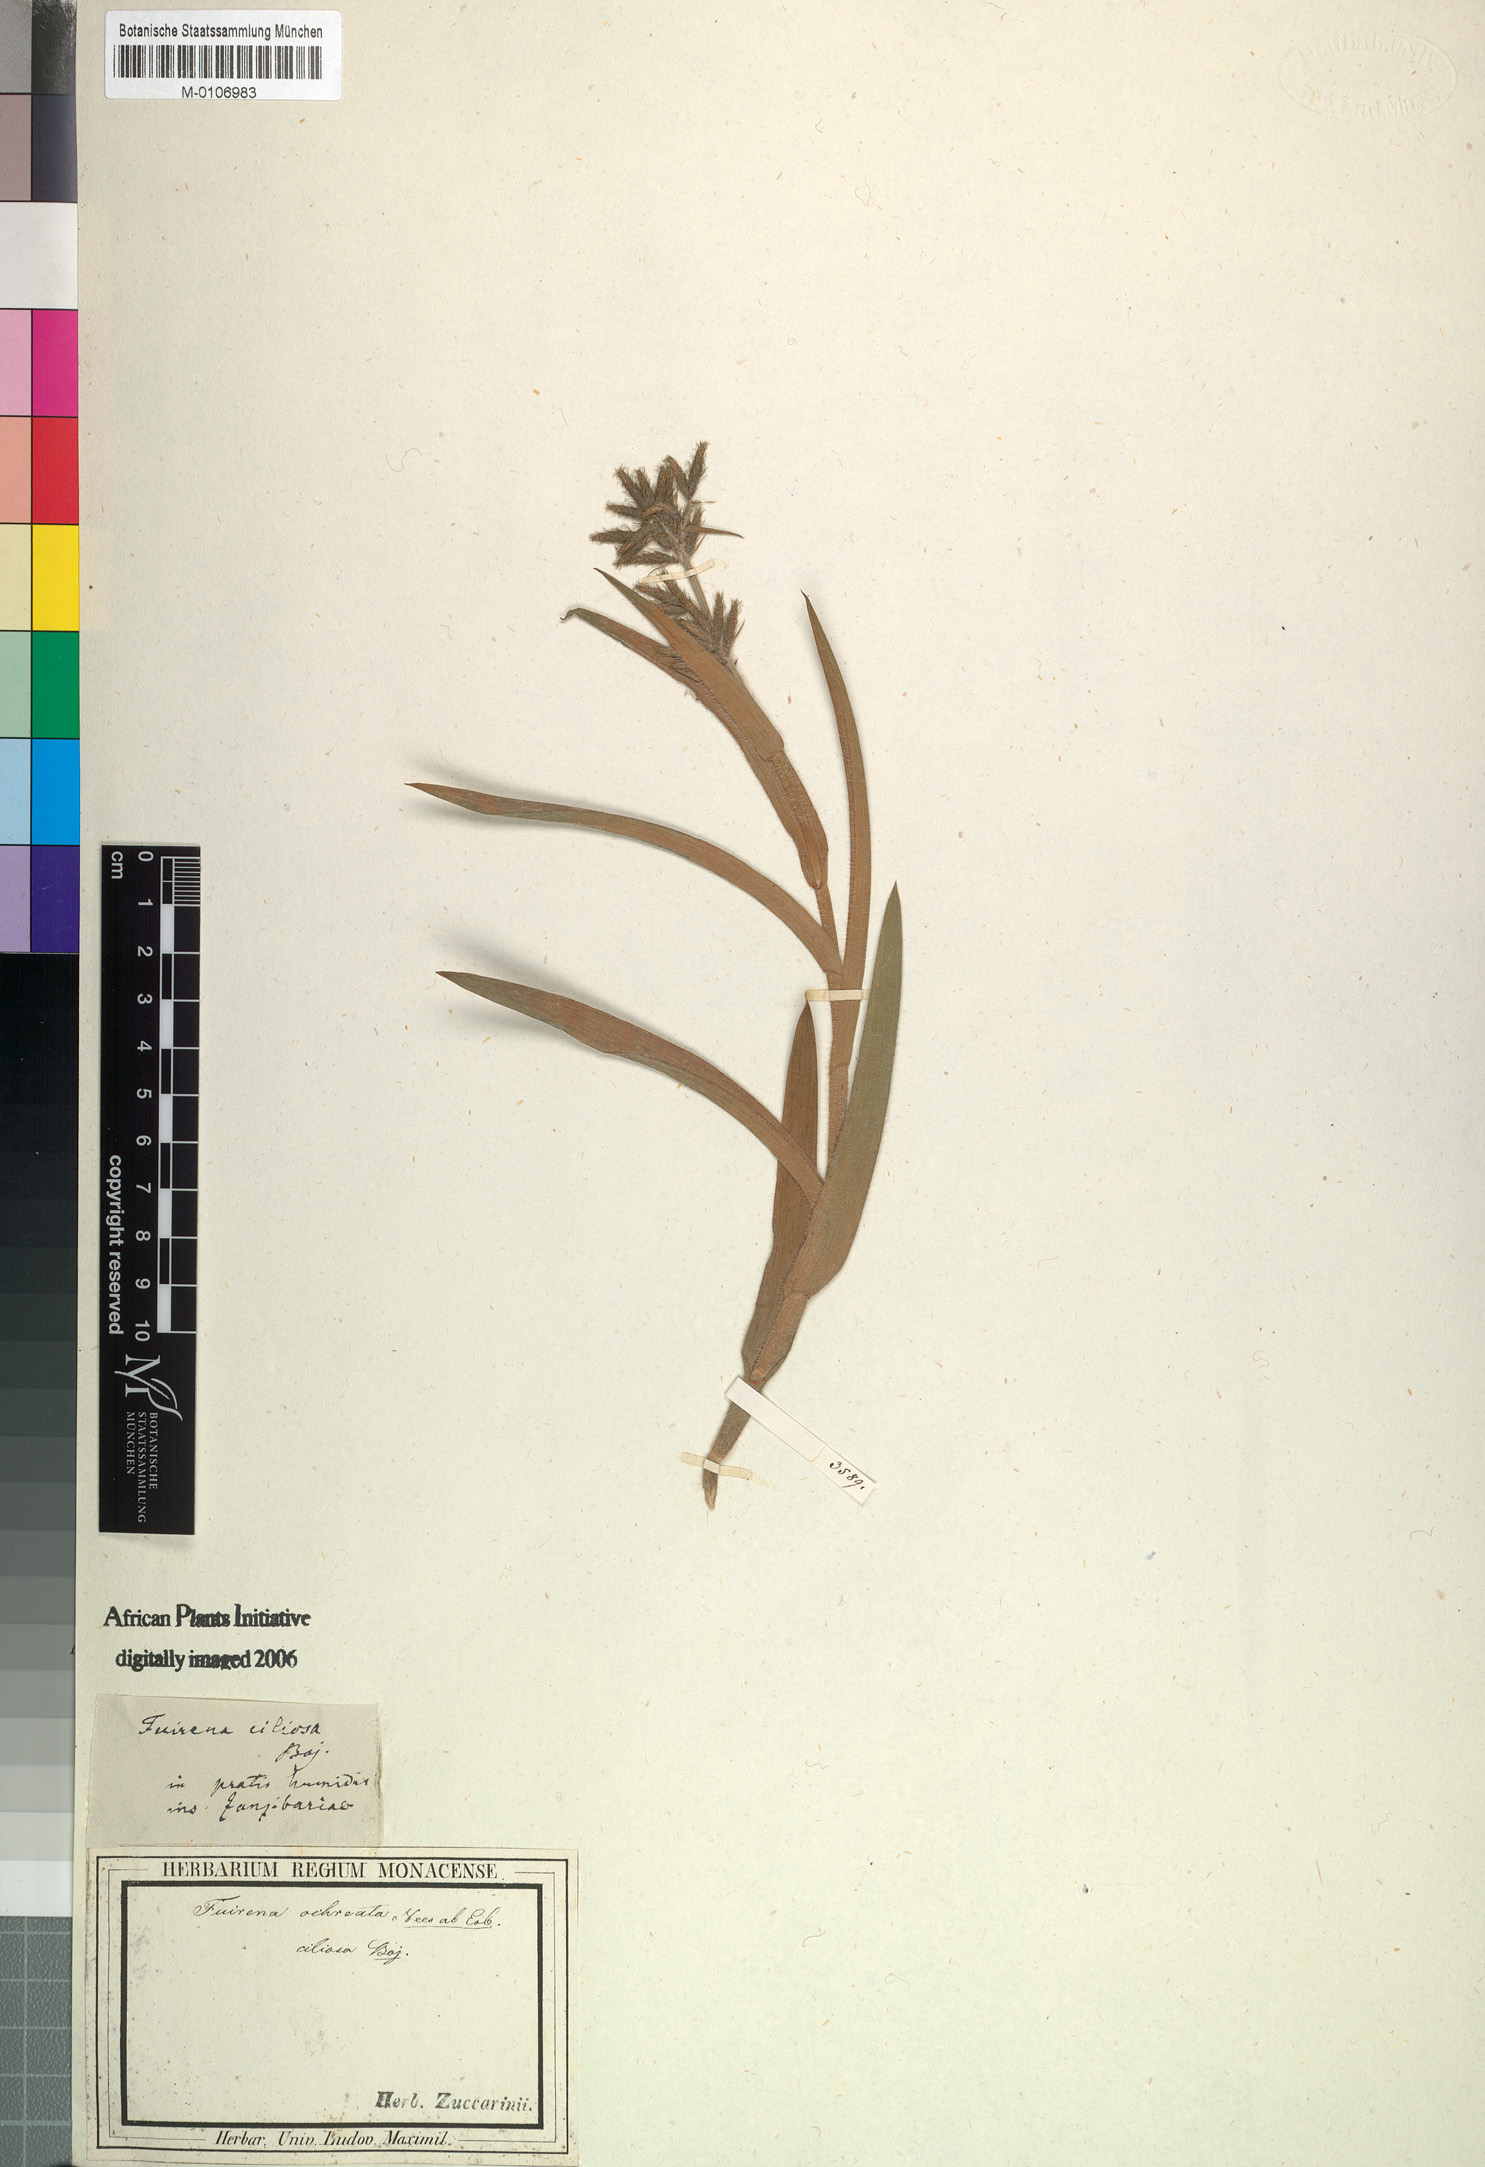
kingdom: Plantae
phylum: Tracheophyta
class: Liliopsida
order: Poales
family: Cyperaceae
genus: Fuirena
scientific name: Fuirena umbellata
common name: Yefen
